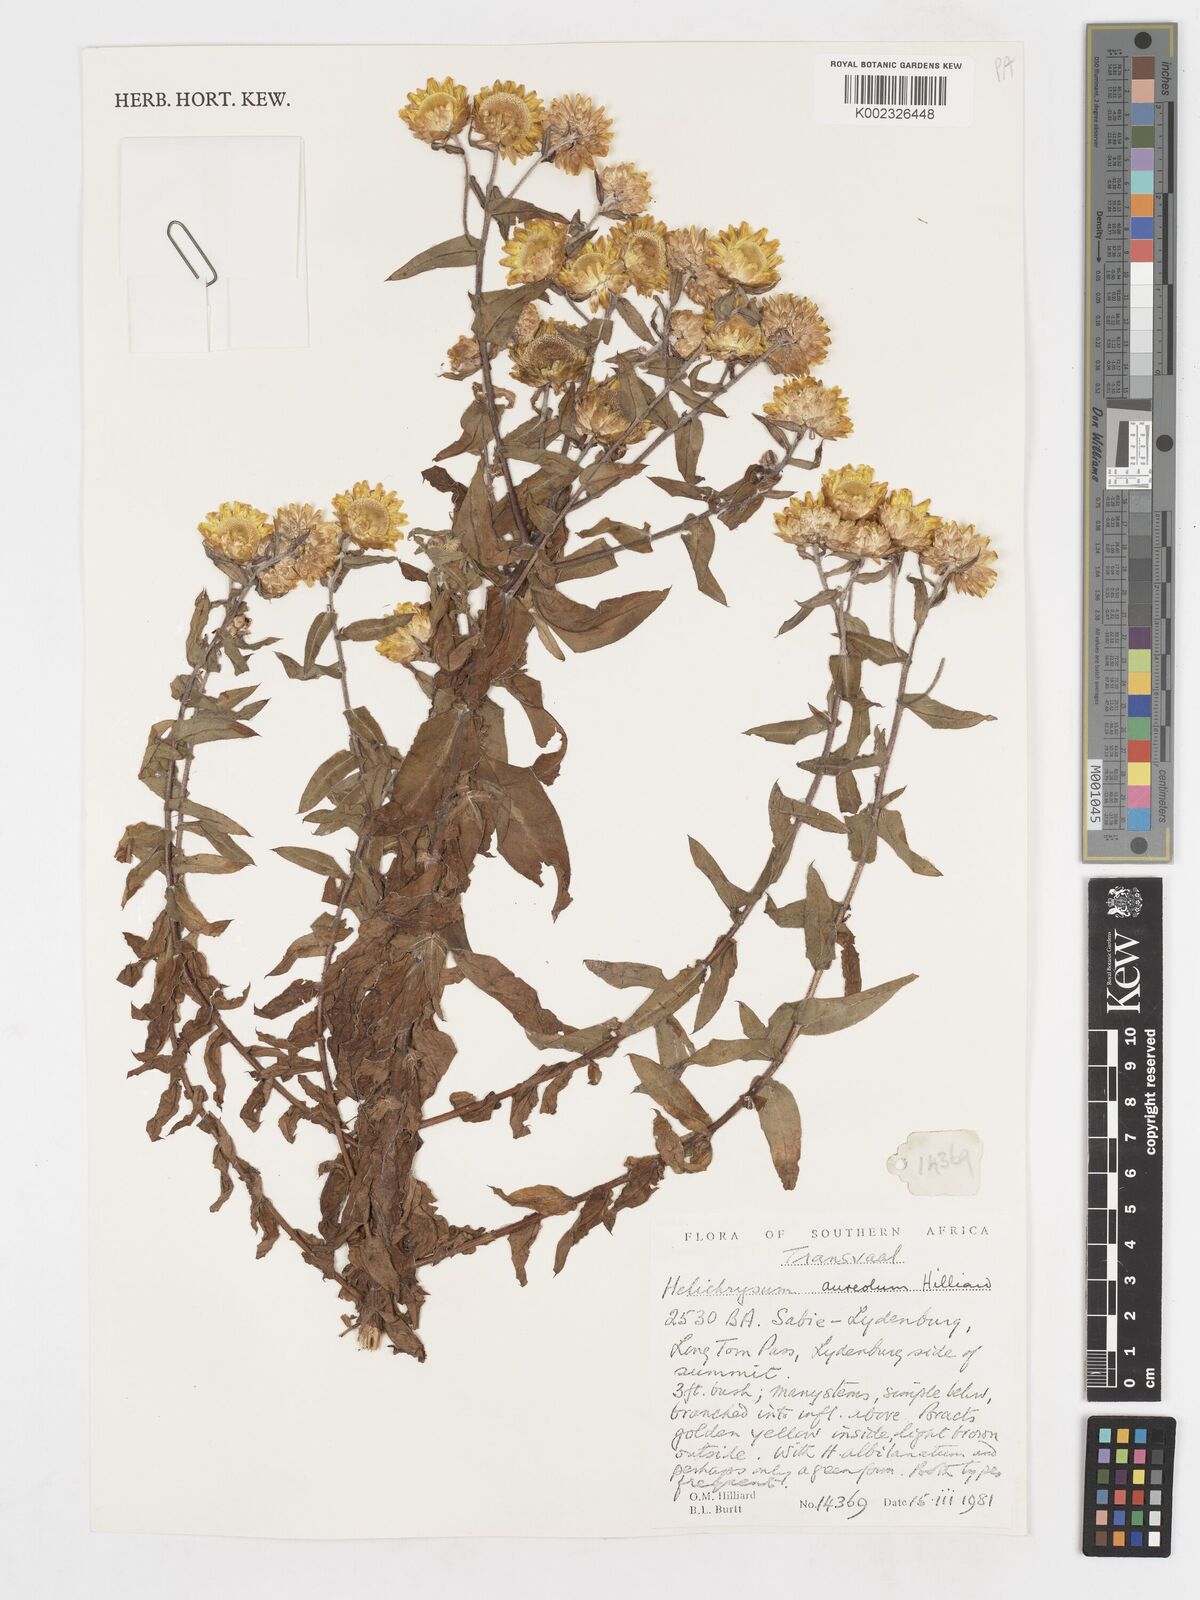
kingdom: Plantae
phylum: Tracheophyta
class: Magnoliopsida
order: Asterales
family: Asteraceae
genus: Helichrysum
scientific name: Helichrysum aureolum
